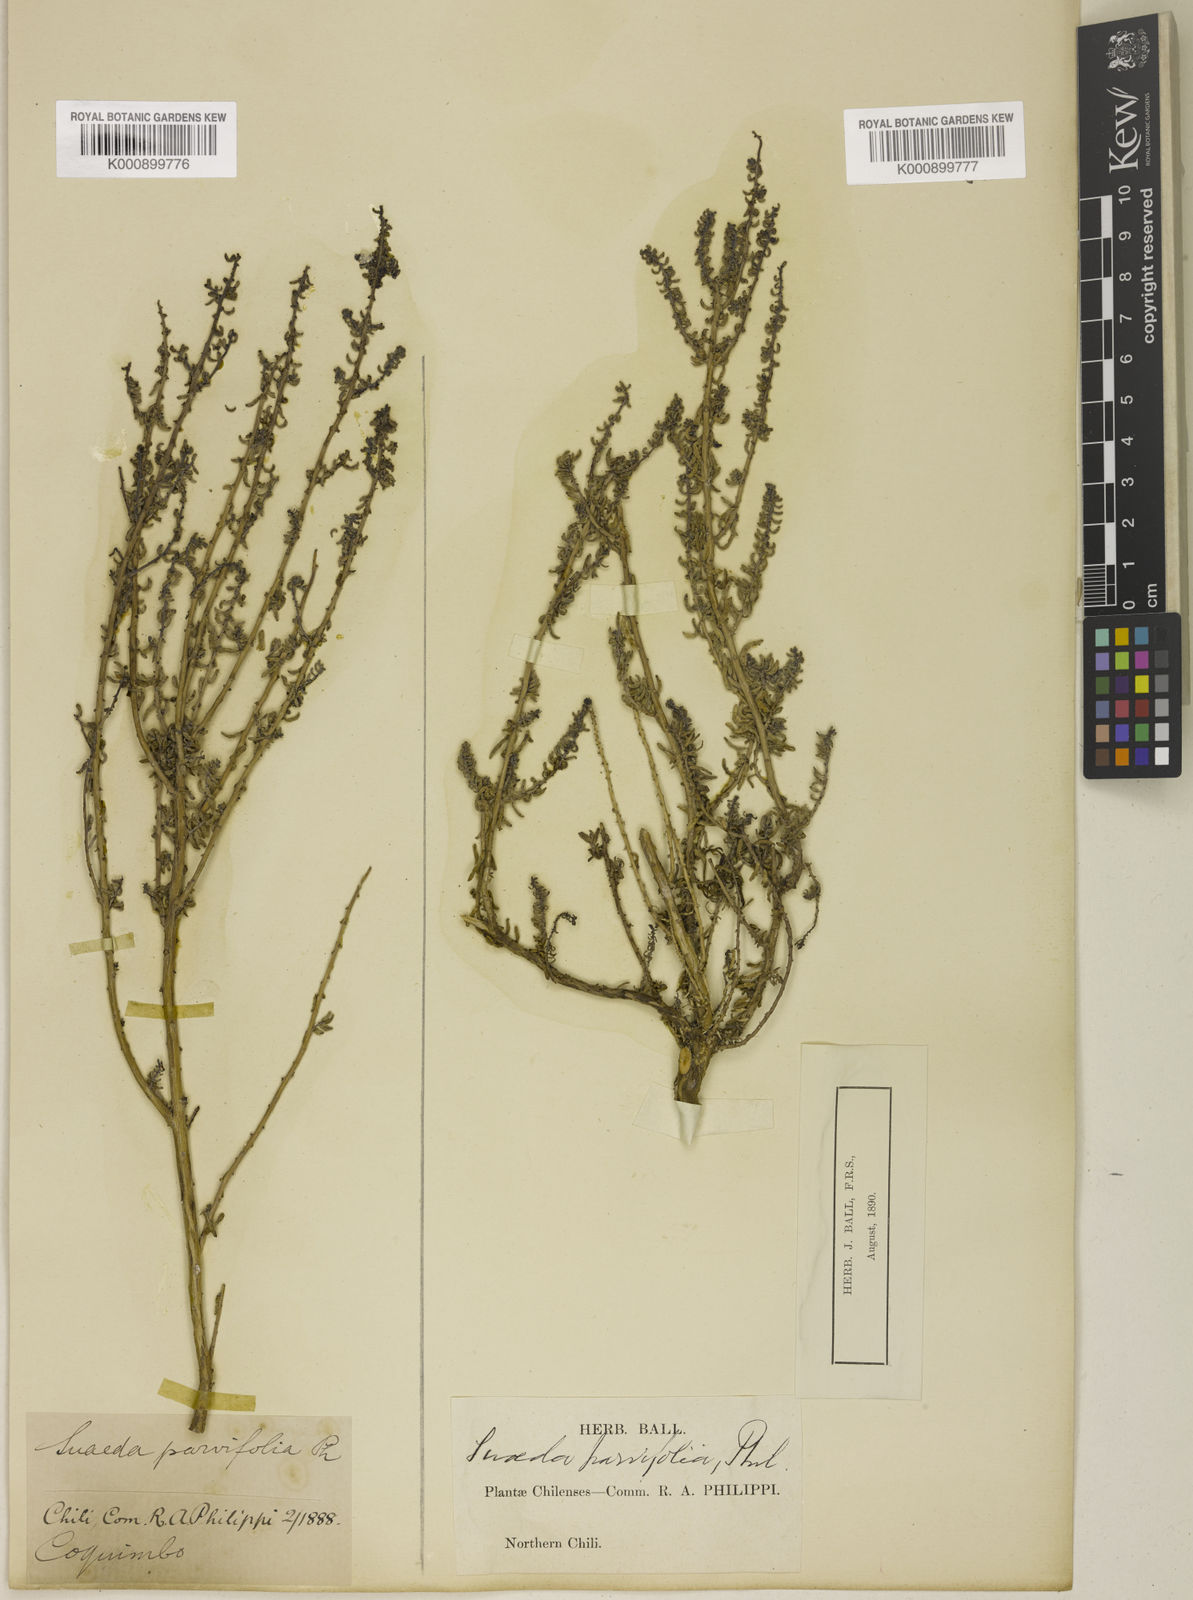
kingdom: Plantae
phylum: Tracheophyta
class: Magnoliopsida
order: Caryophyllales
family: Amaranthaceae
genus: Suaeda
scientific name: Suaeda foliosa
